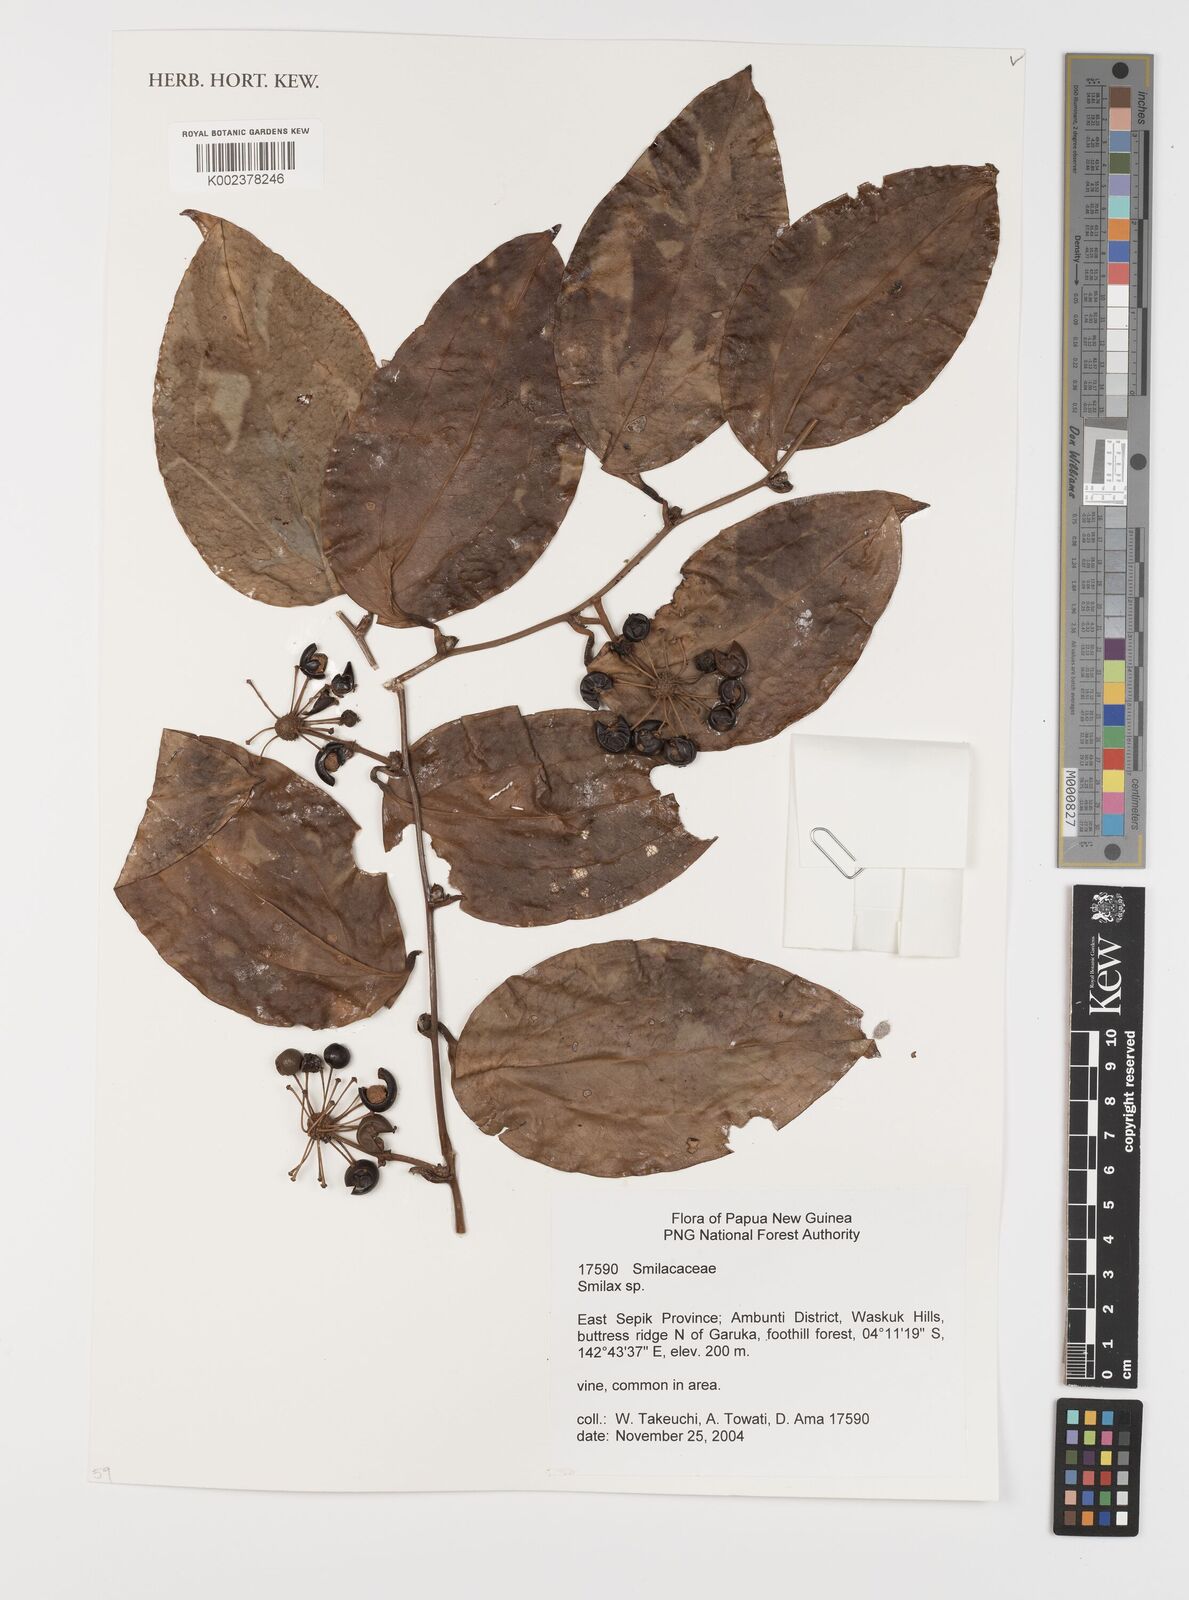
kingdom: Plantae
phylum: Tracheophyta
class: Liliopsida
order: Liliales
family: Smilacaceae
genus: Smilax
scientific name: Smilax
